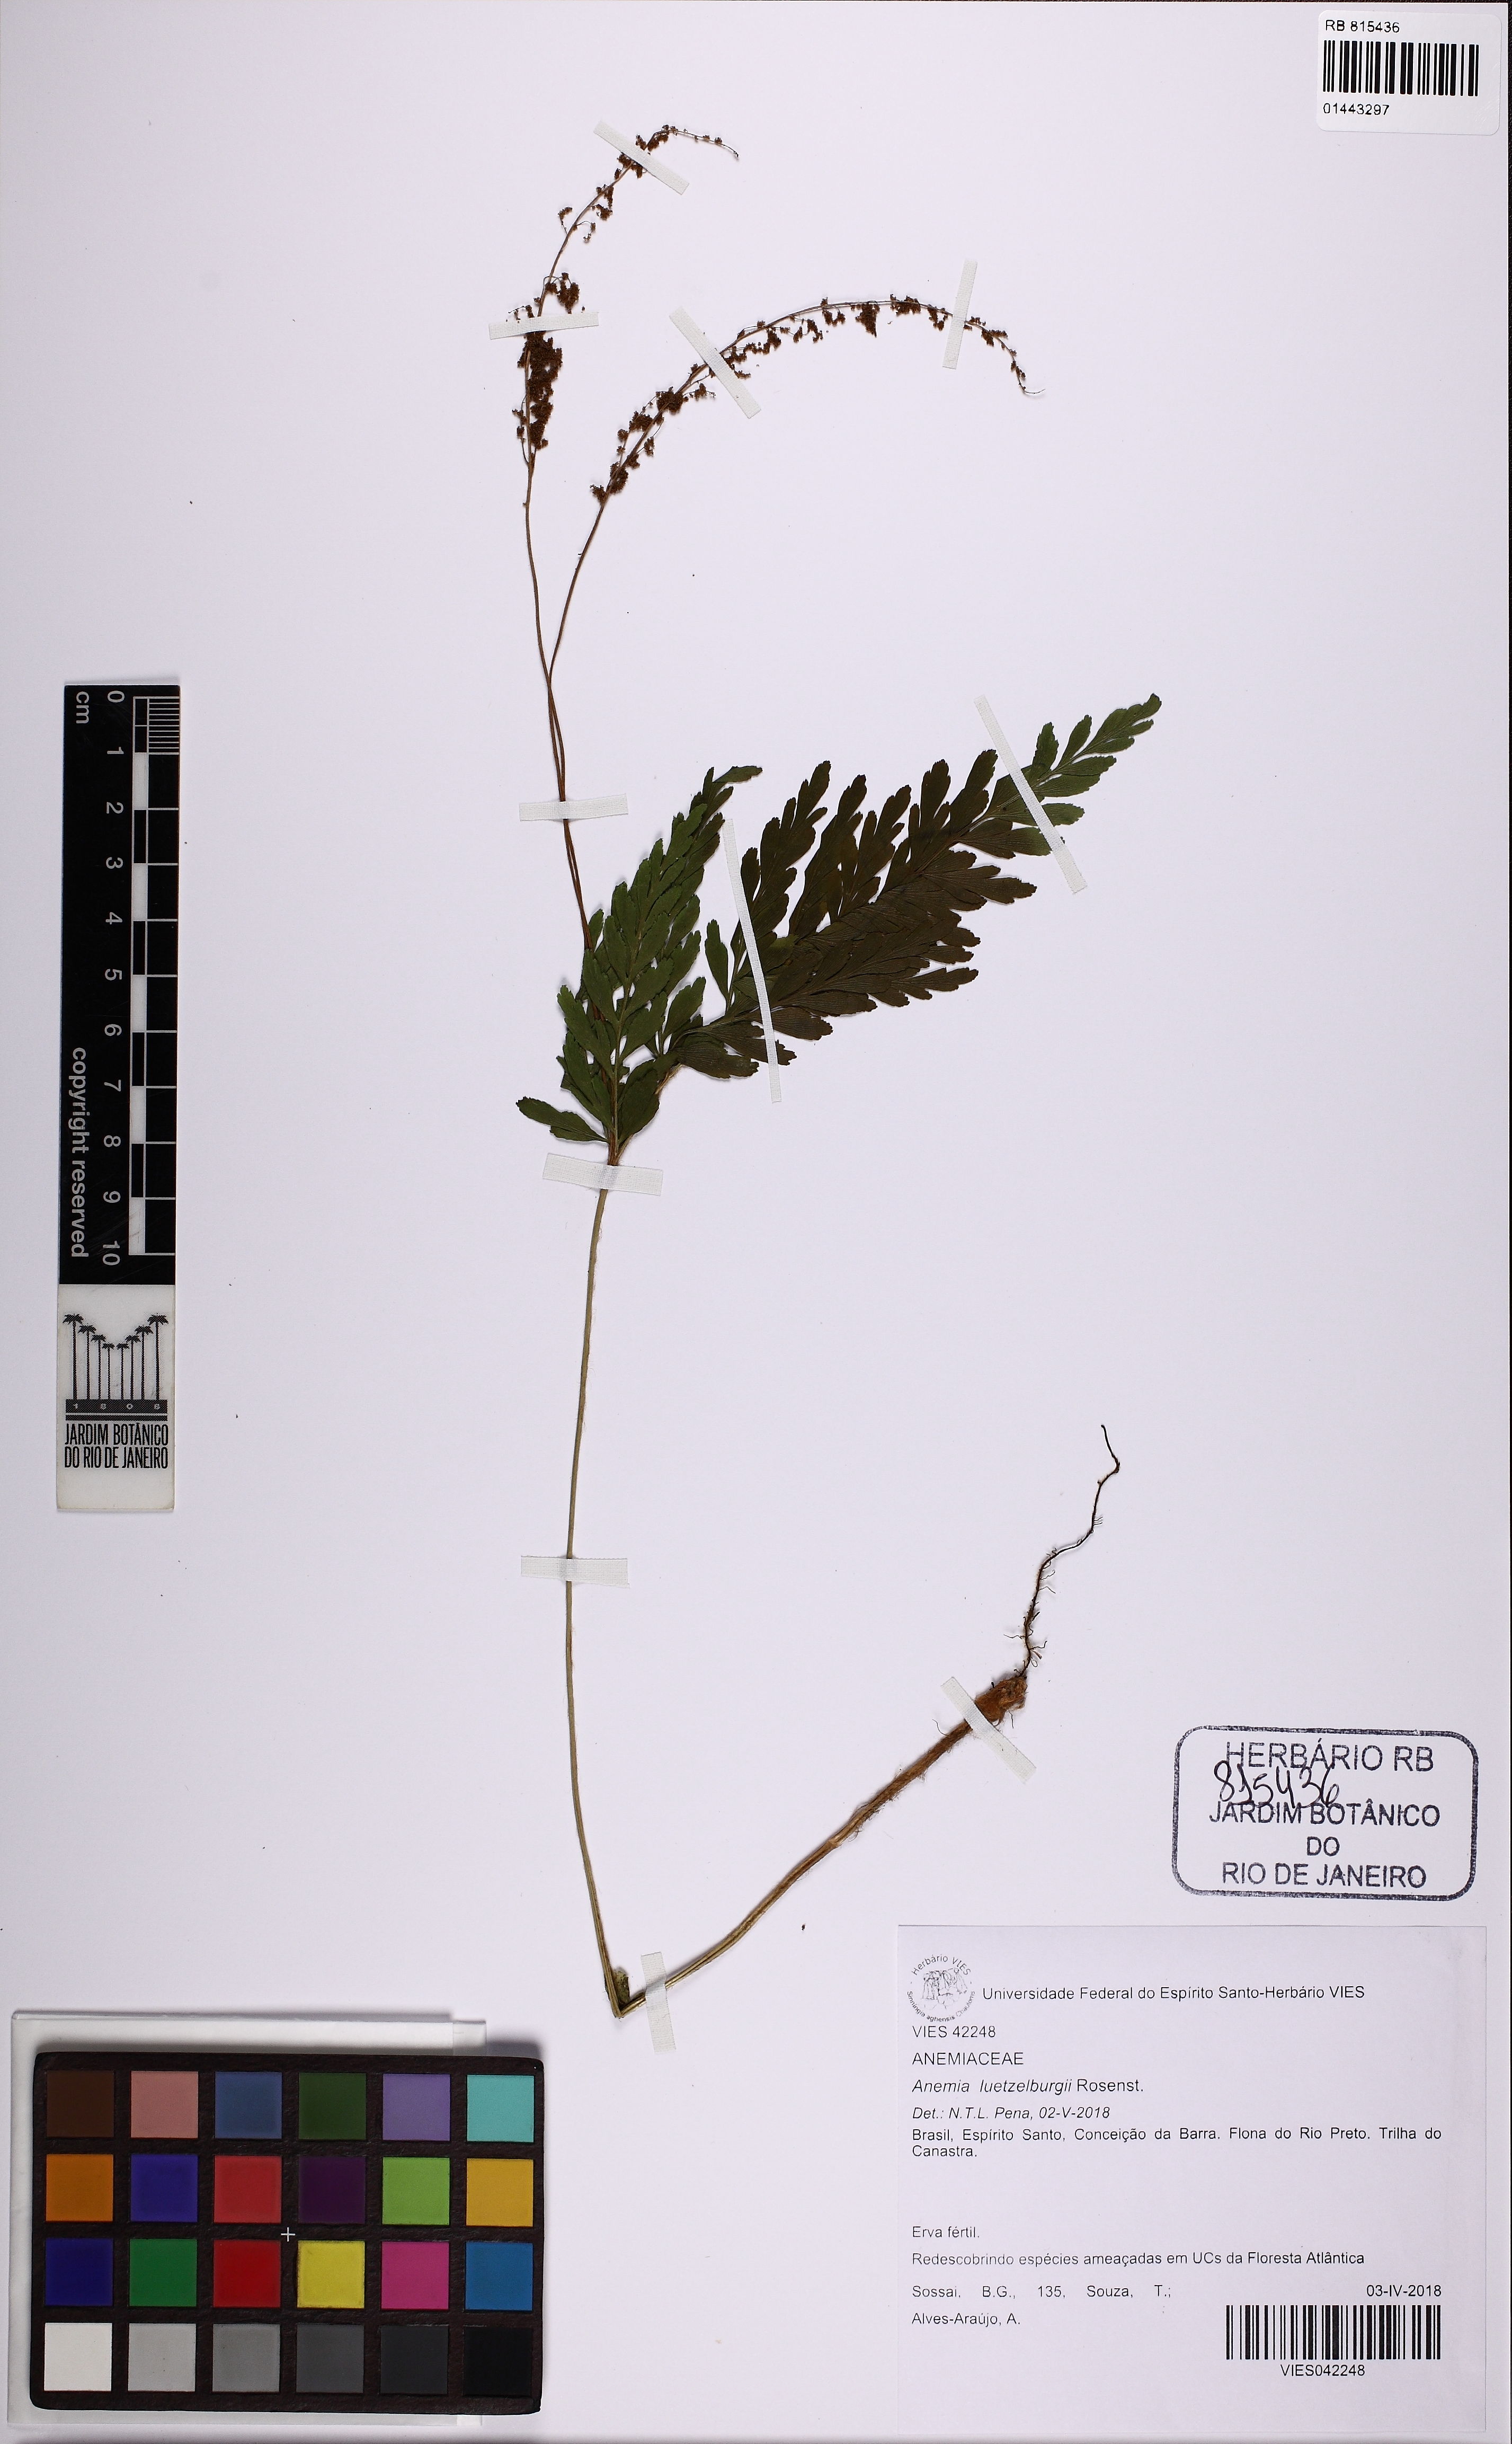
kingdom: Plantae
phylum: Tracheophyta
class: Polypodiopsida
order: Schizaeales
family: Anemiaceae
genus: Anemia
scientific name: Anemia luetzelburgii
